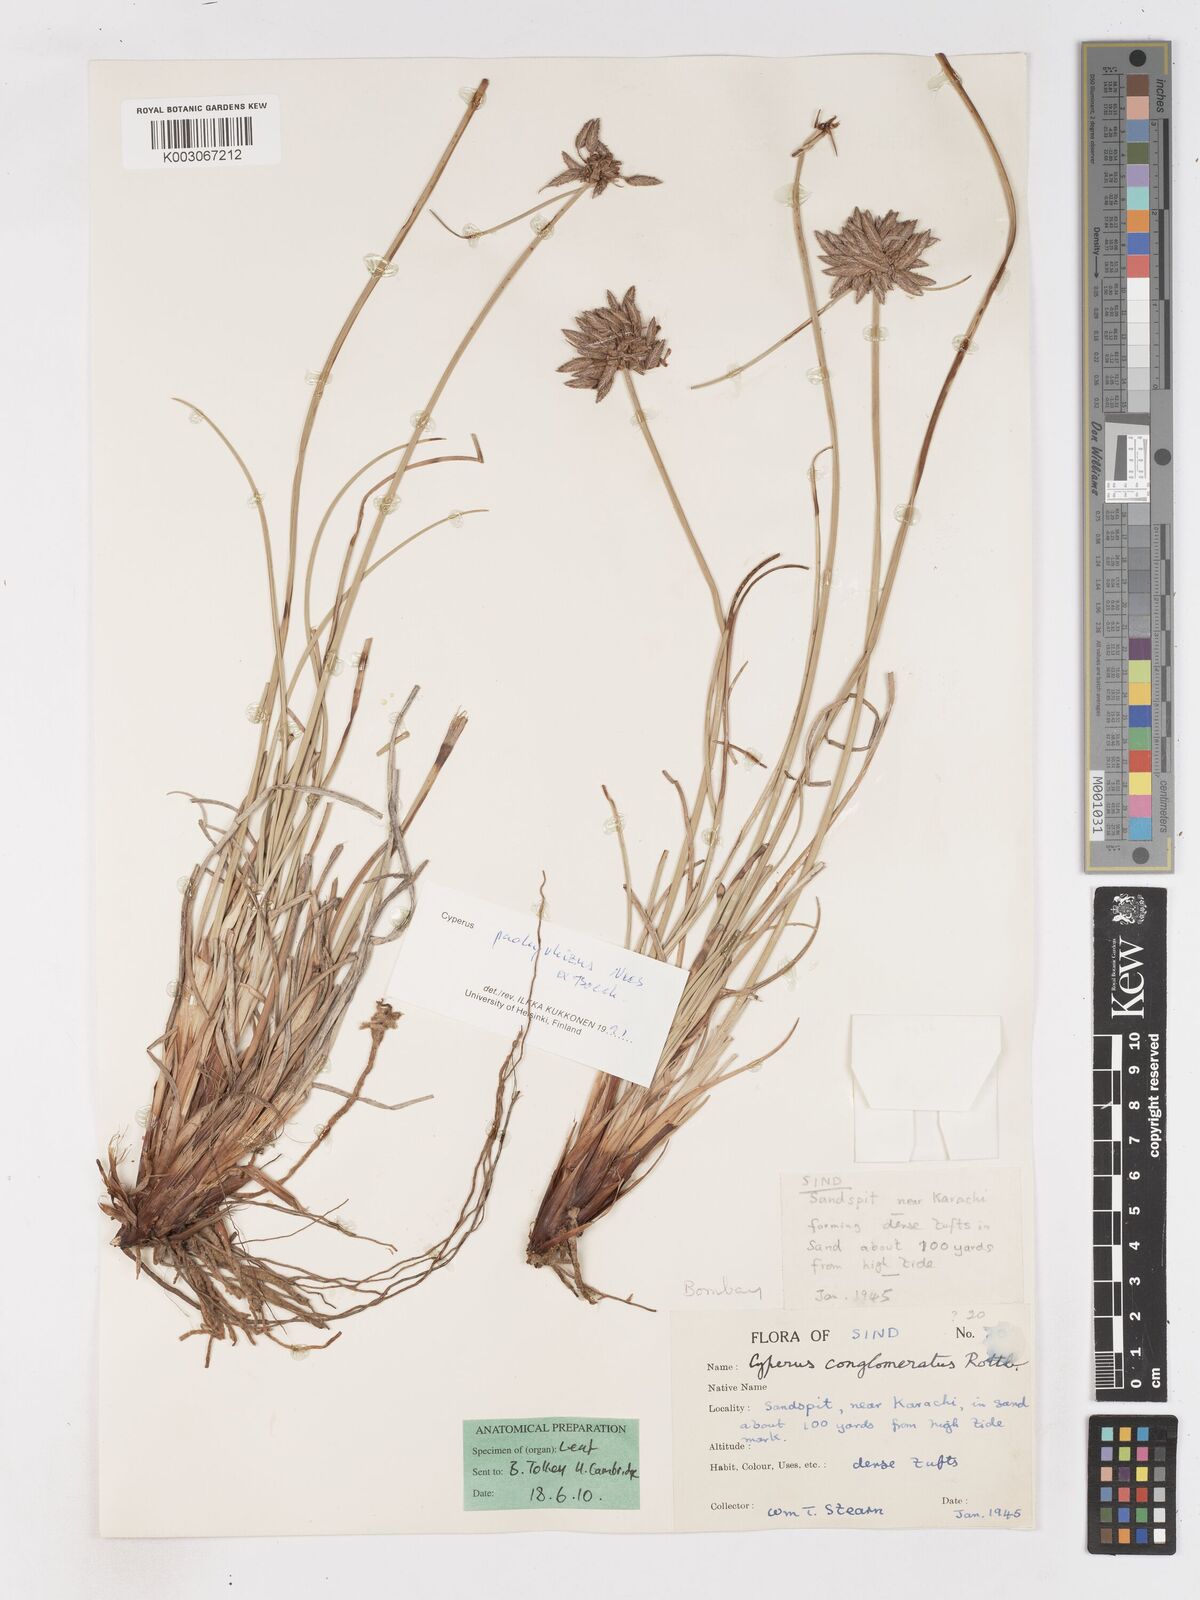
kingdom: Plantae
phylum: Tracheophyta
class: Liliopsida
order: Poales
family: Cyperaceae
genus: Cyperus
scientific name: Cyperus conglomeratus
